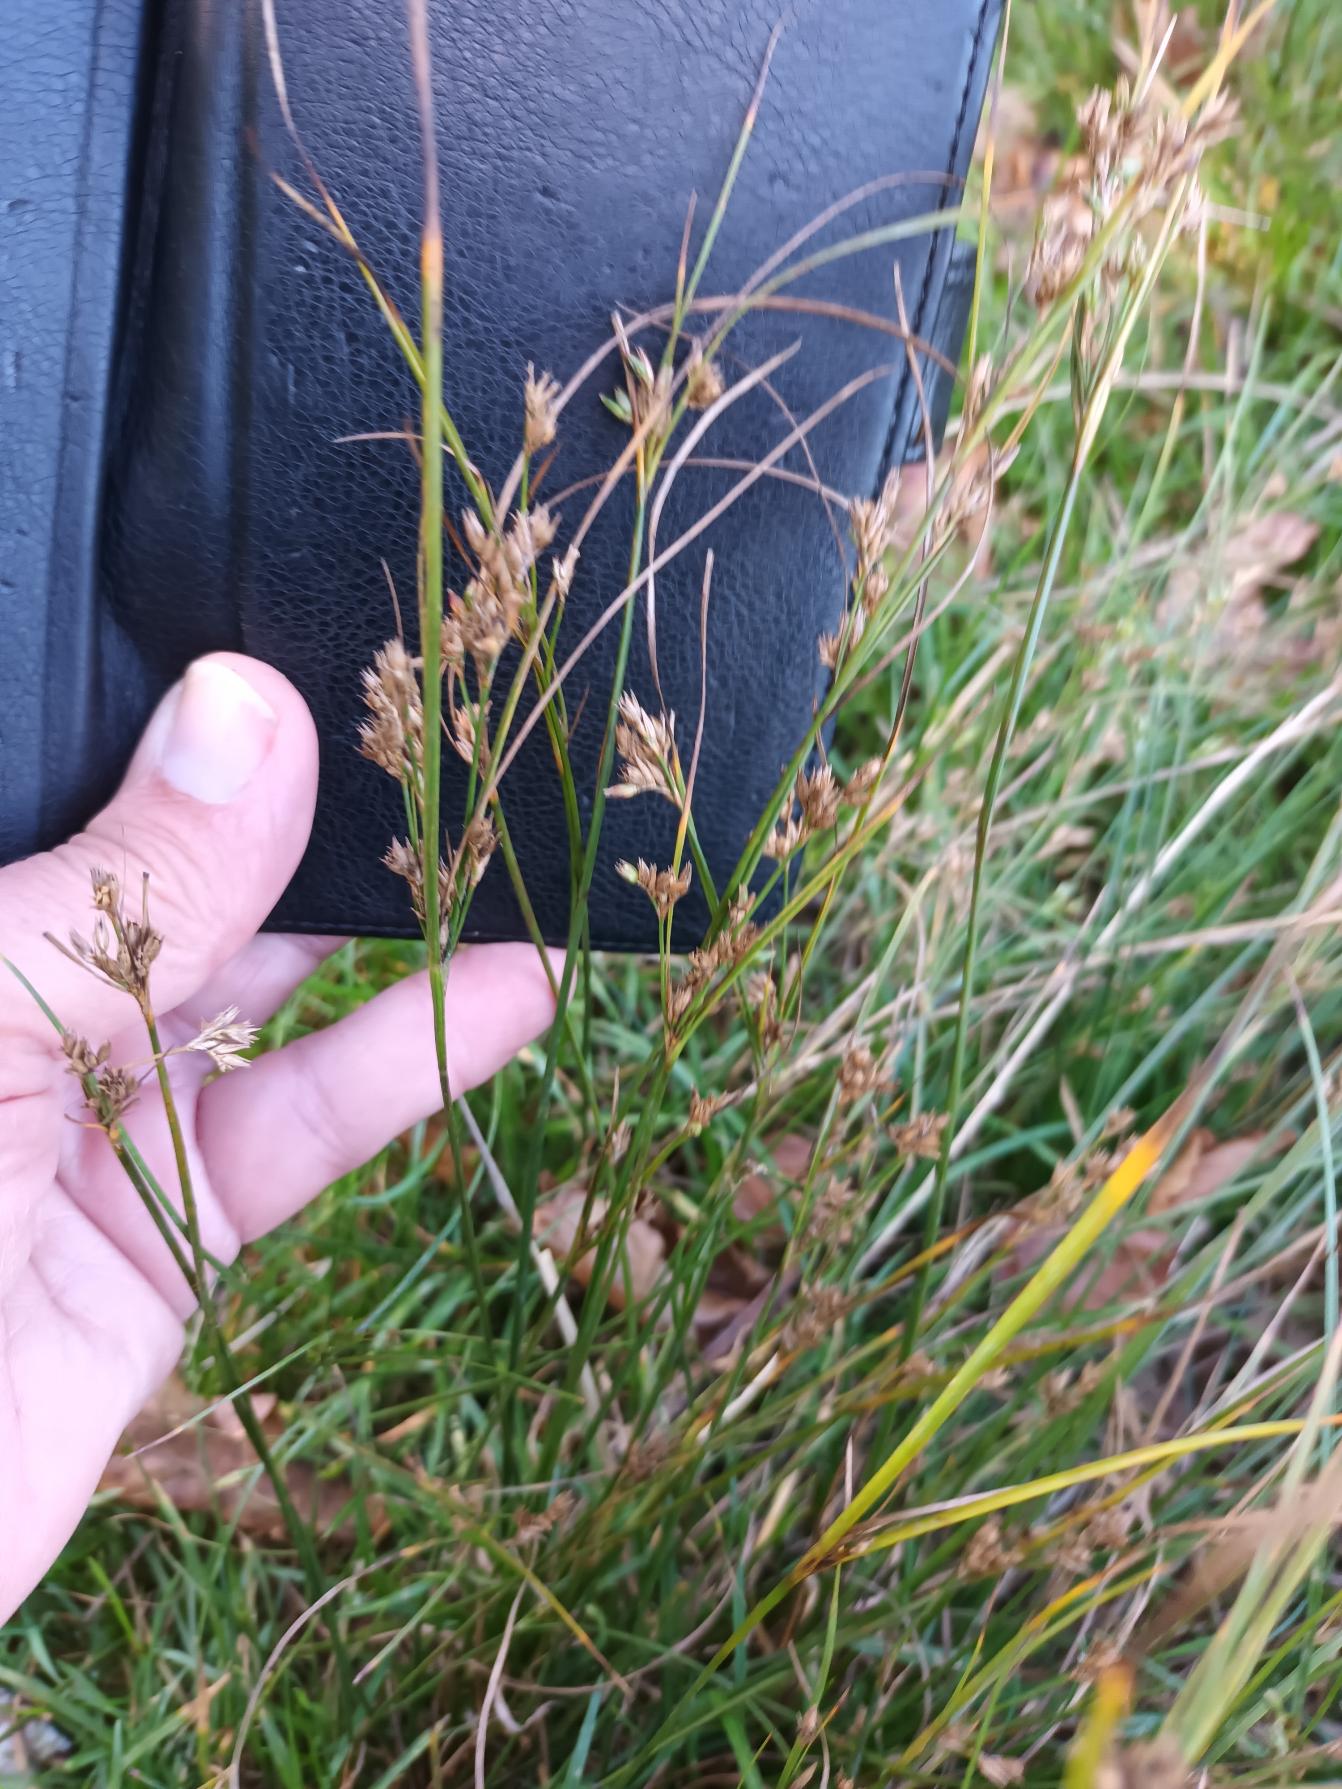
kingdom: Plantae
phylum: Tracheophyta
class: Liliopsida
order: Poales
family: Juncaceae
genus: Juncus
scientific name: Juncus tenuis
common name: Tue-siv
